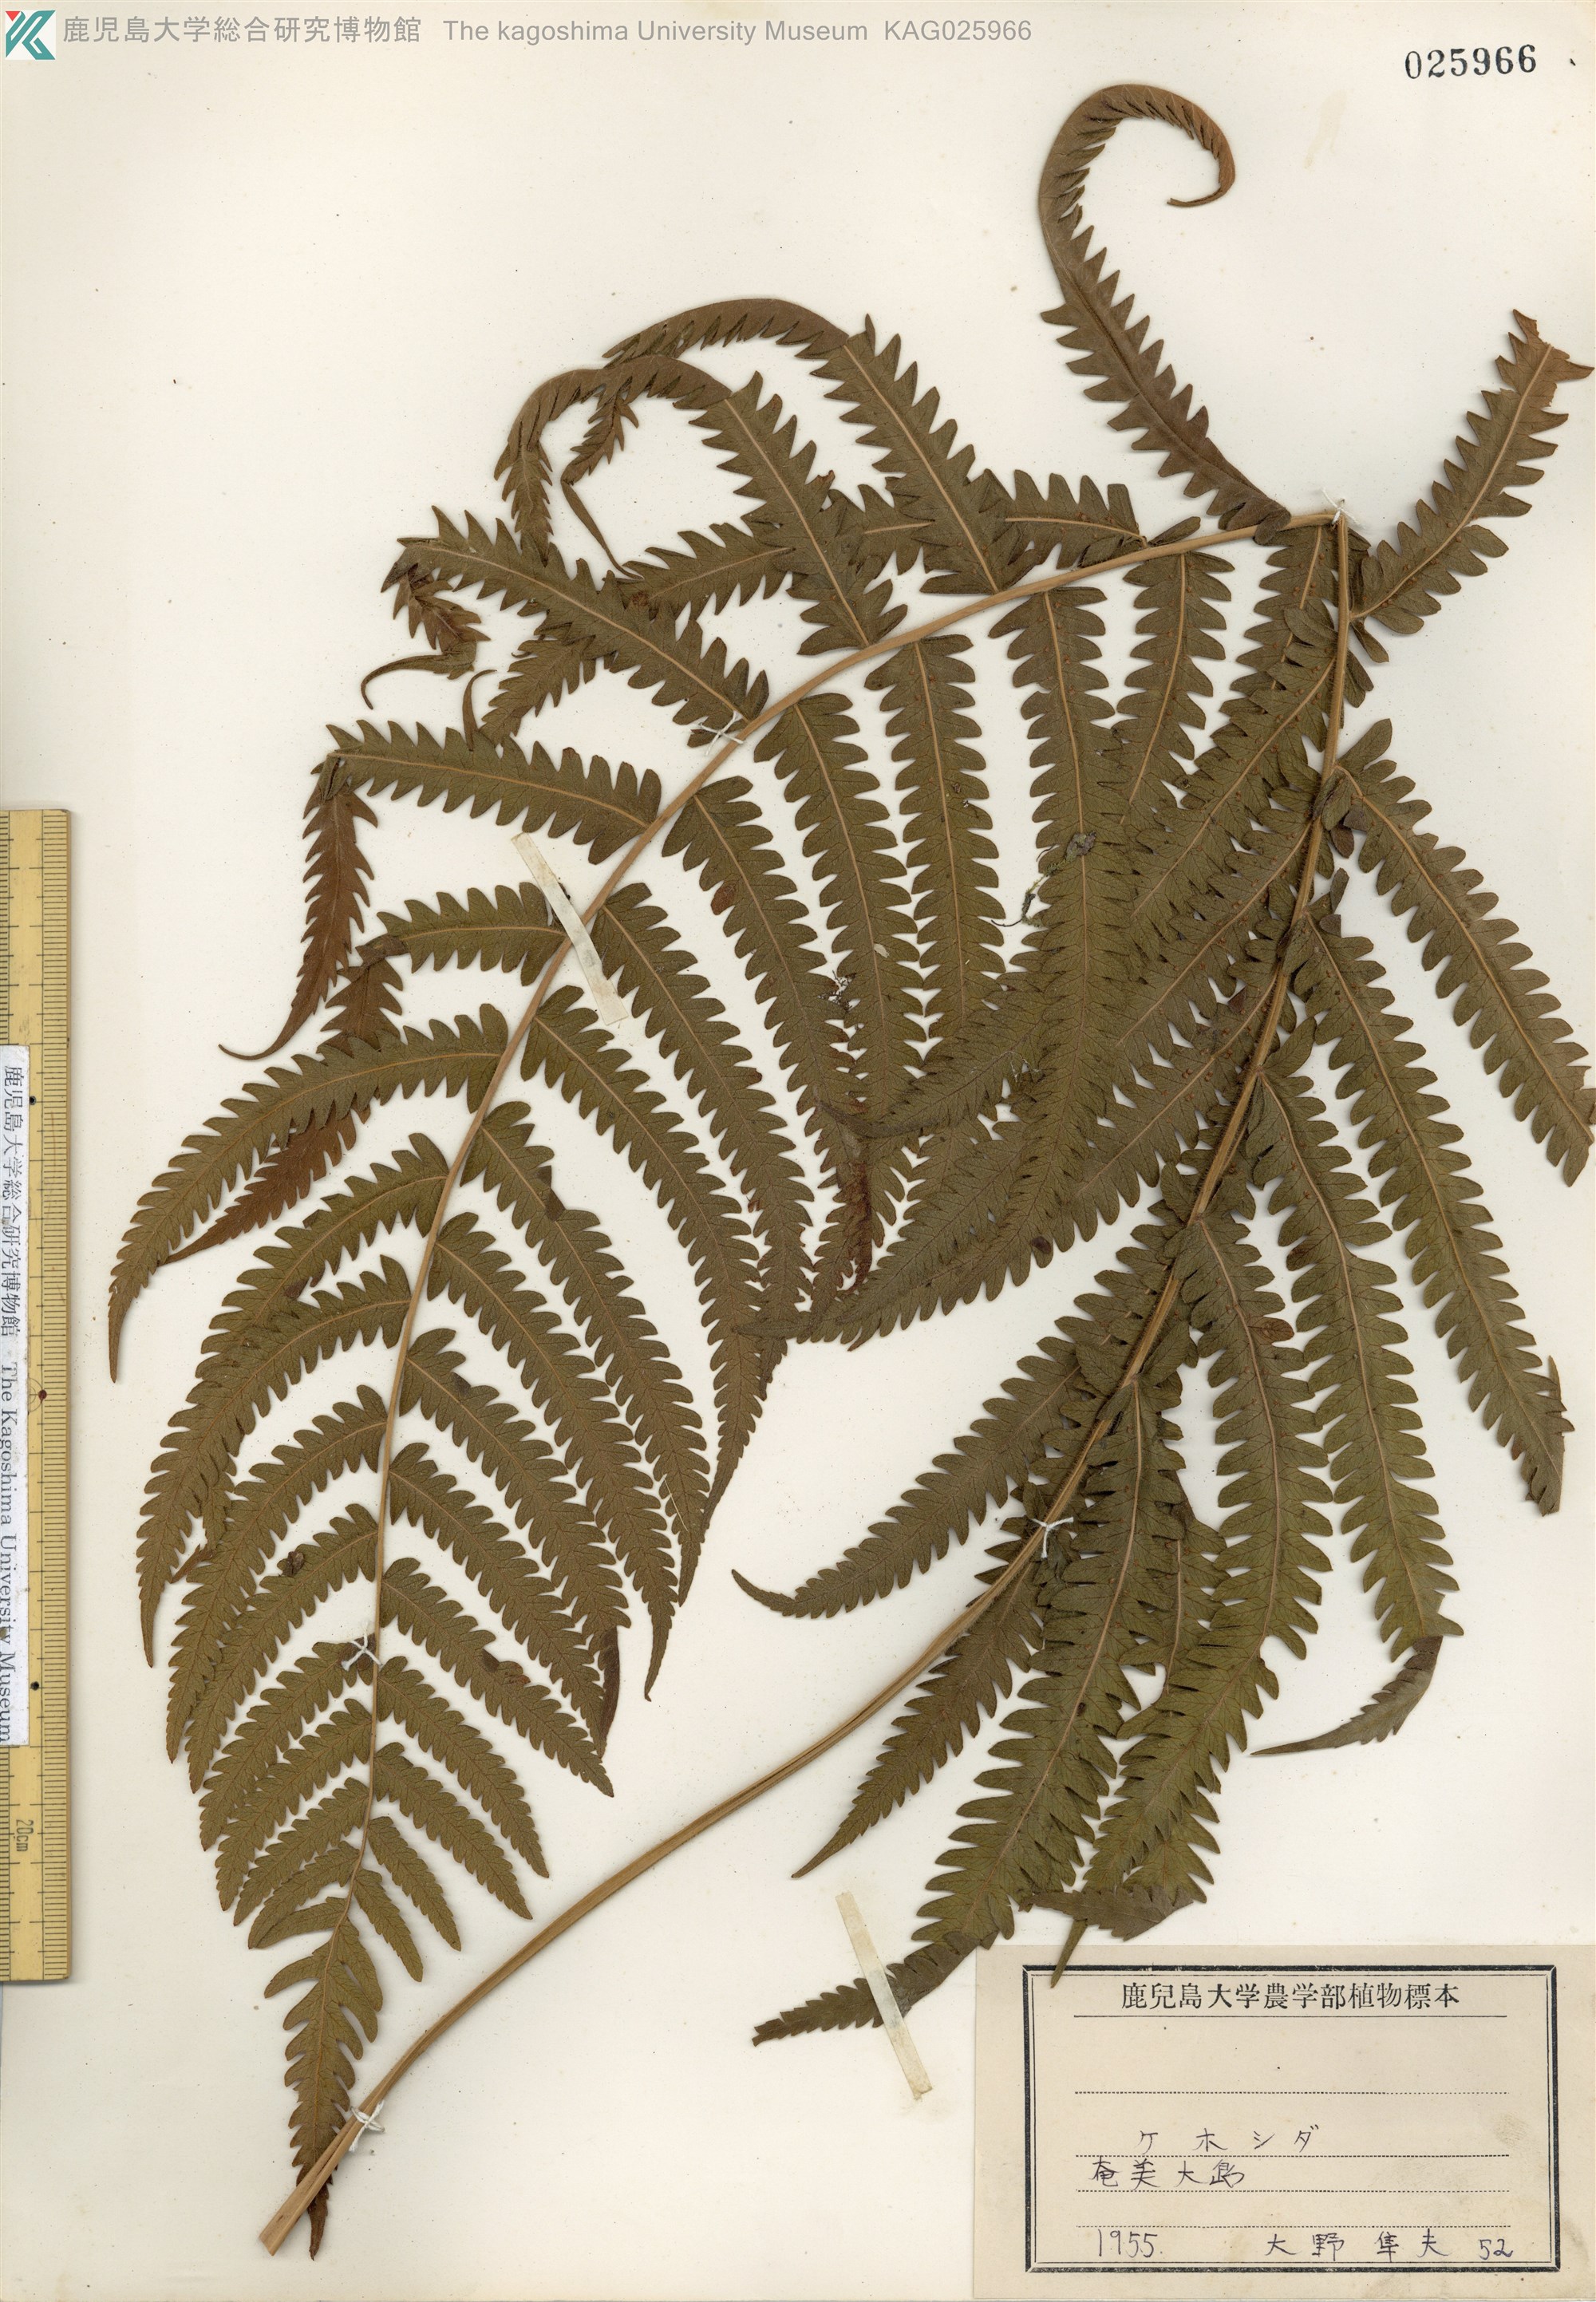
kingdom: Plantae
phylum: Tracheophyta
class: Polypodiopsida
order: Polypodiales
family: Thelypteridaceae
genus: Christella
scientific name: Christella parasitica
